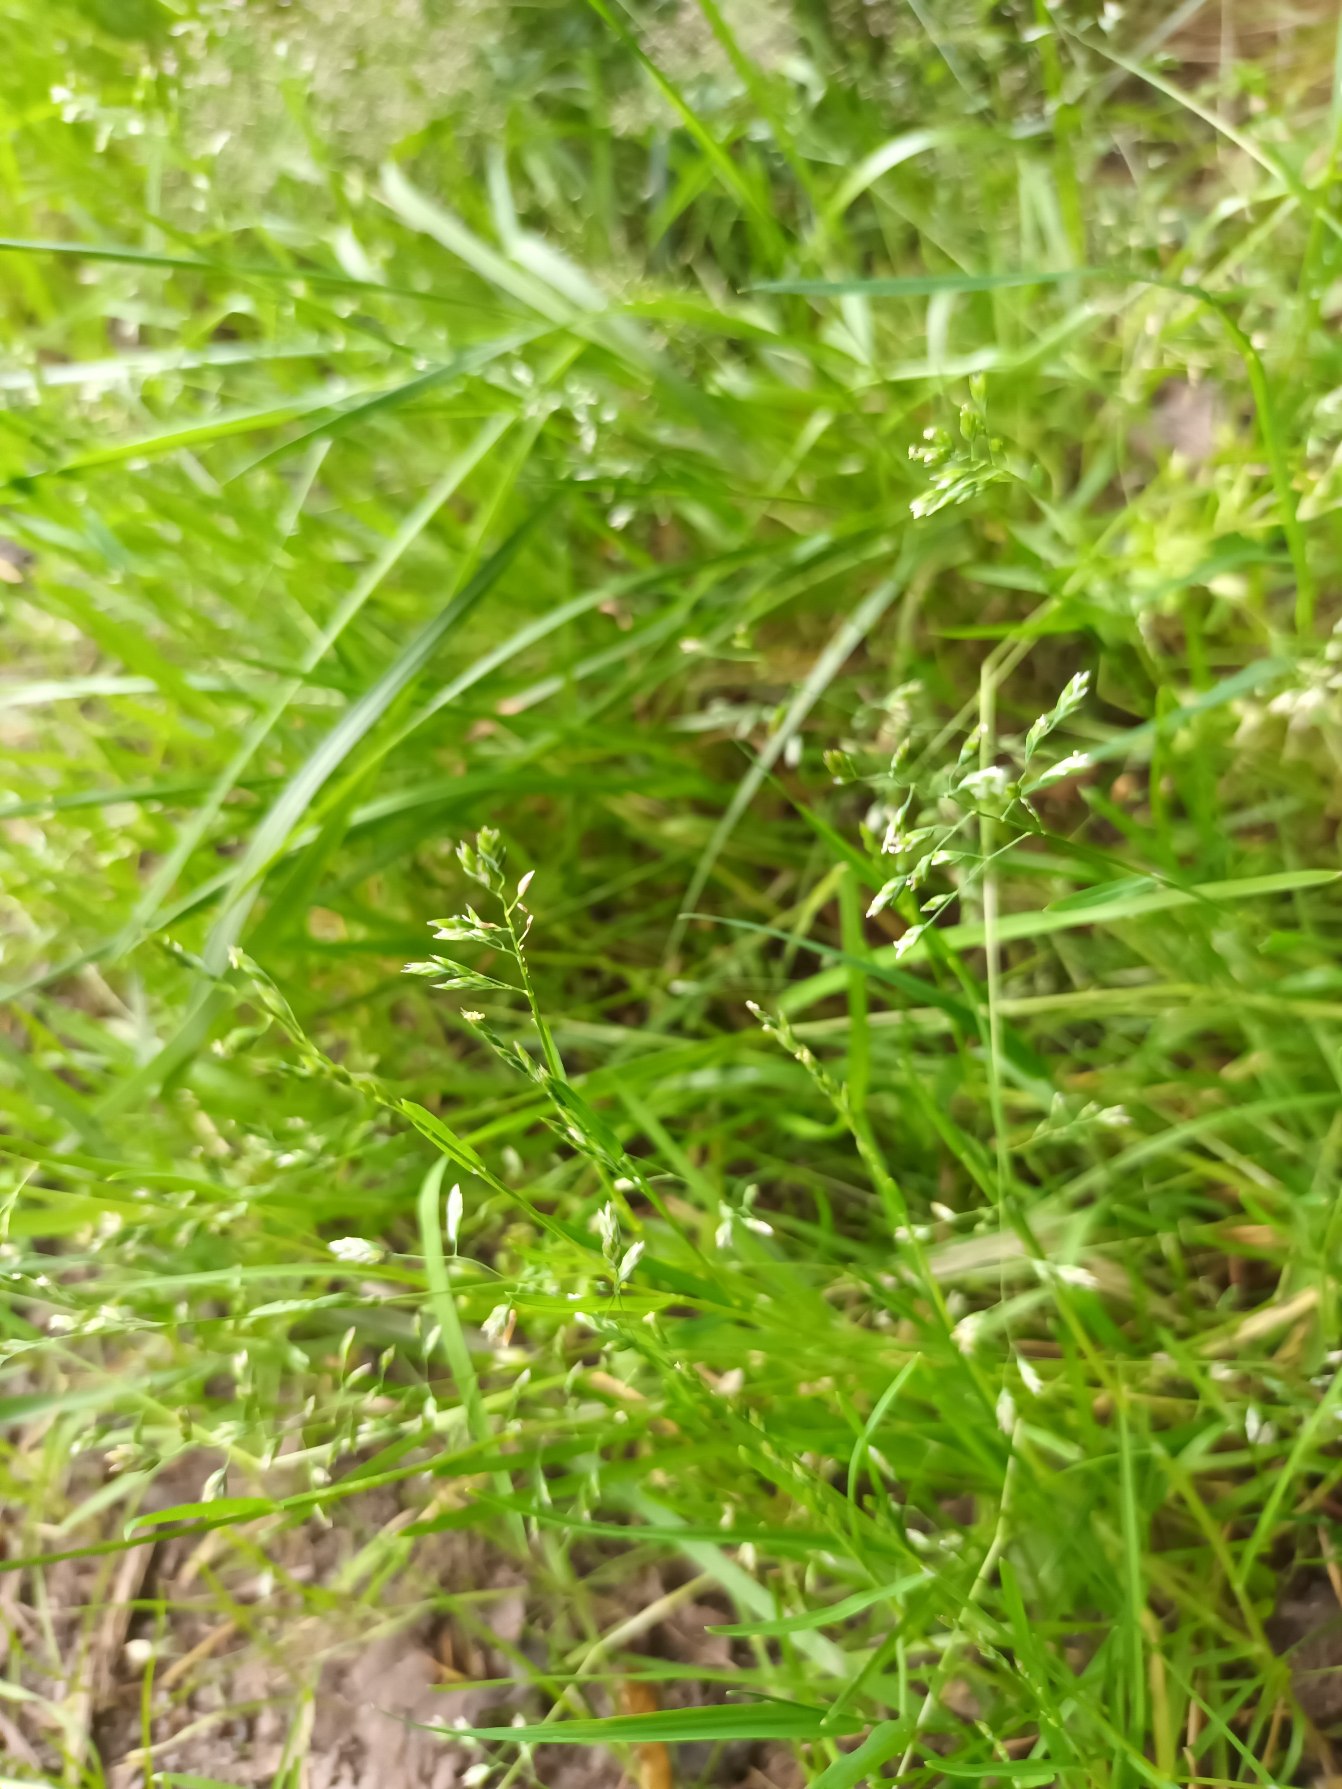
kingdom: Plantae
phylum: Tracheophyta
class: Liliopsida
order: Poales
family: Poaceae
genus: Poa
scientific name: Poa annua
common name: Enårig rapgræs
